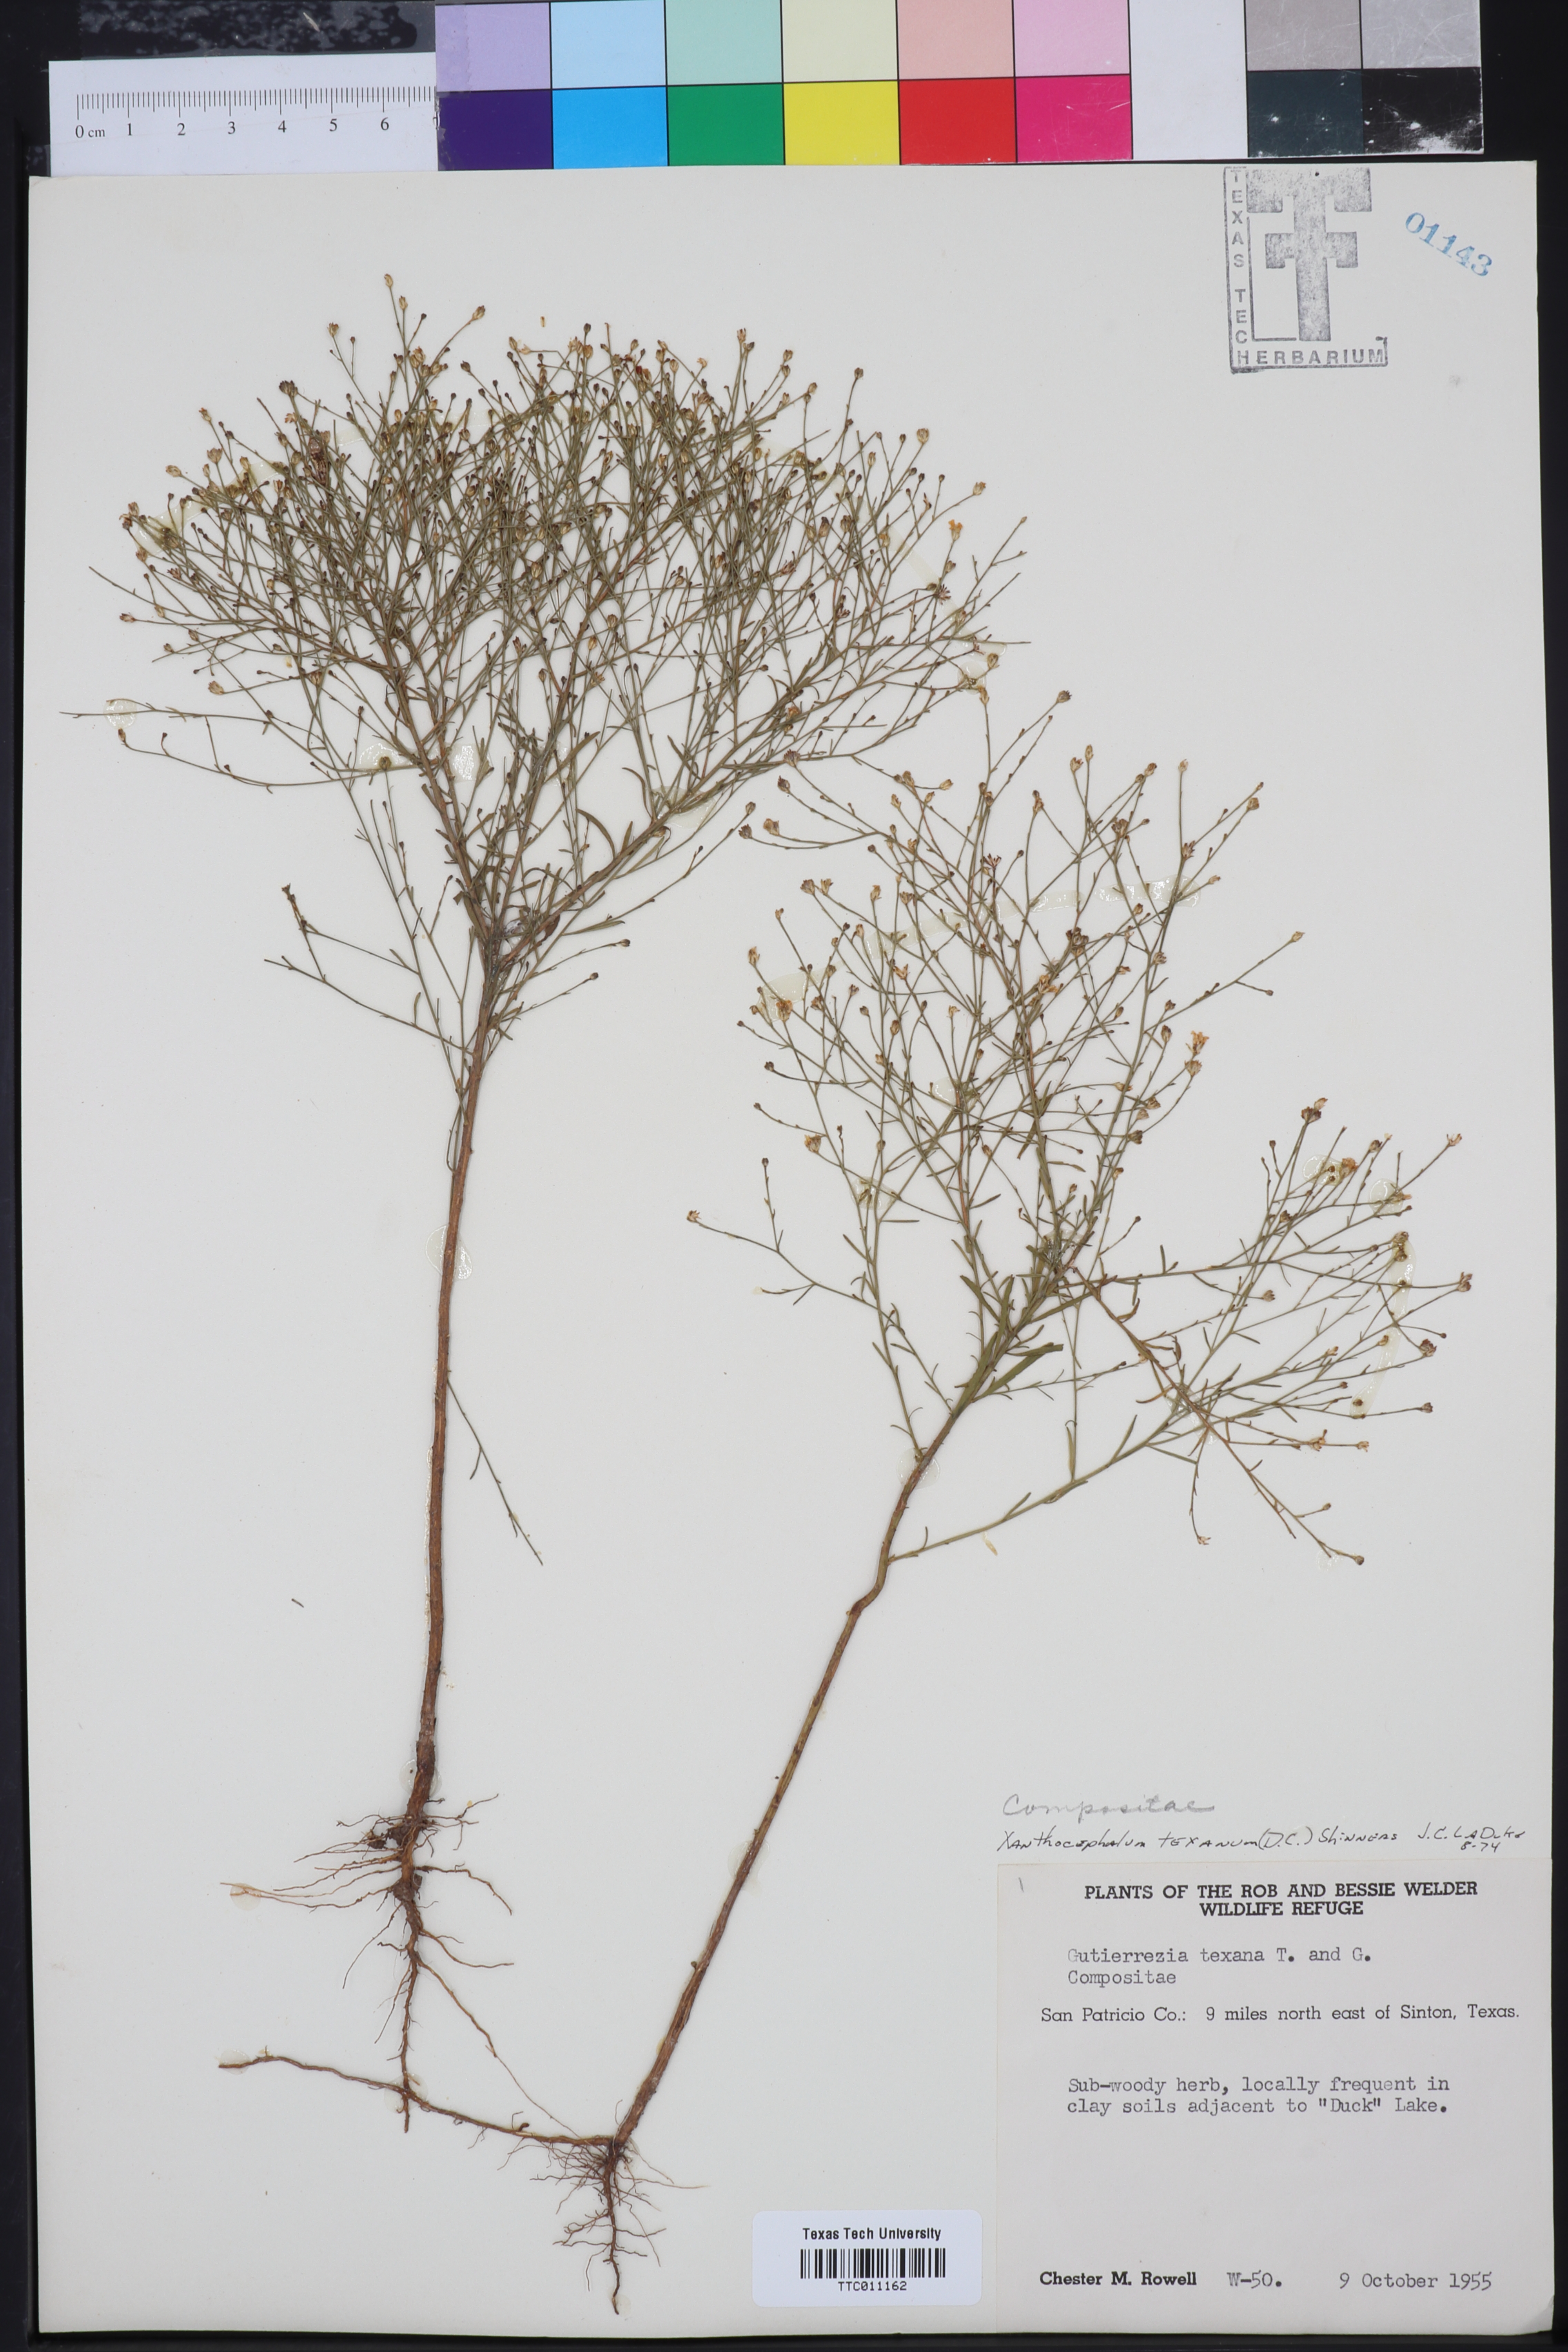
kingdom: Plantae
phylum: Tracheophyta
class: Magnoliopsida
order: Asterales
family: Asteraceae
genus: Gutierrezia
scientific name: Gutierrezia texana
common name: Texas snakeweed
